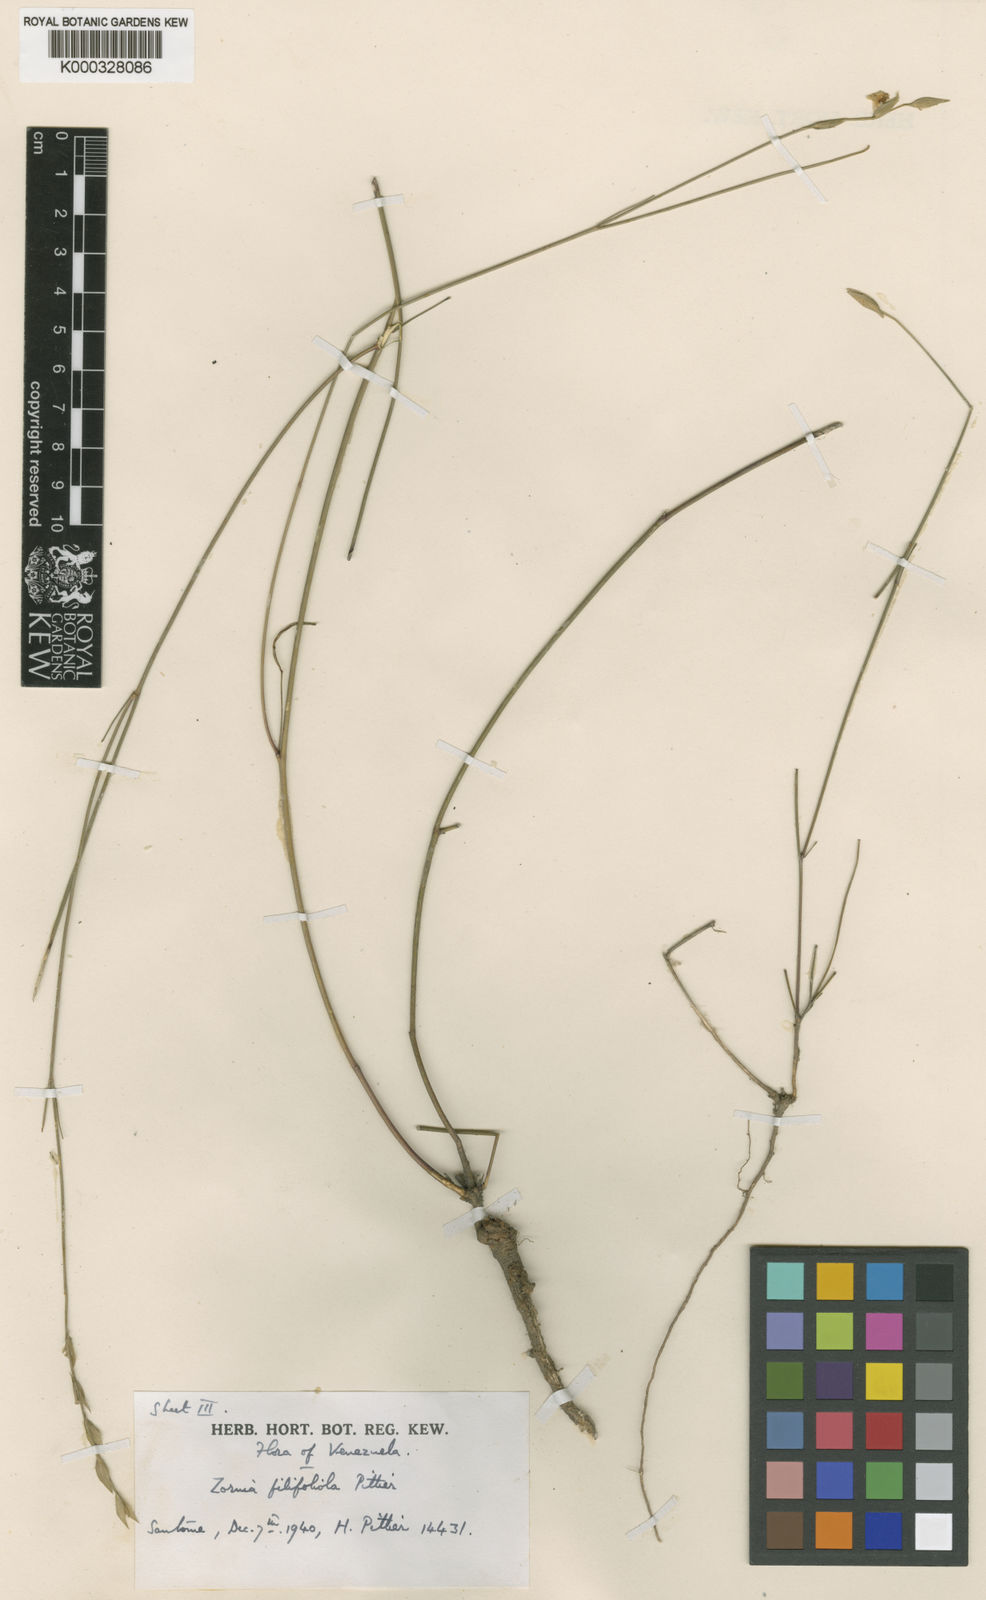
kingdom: Plantae
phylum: Tracheophyta
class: Magnoliopsida
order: Fabales
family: Fabaceae
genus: Zornia
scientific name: Zornia filifoliola
